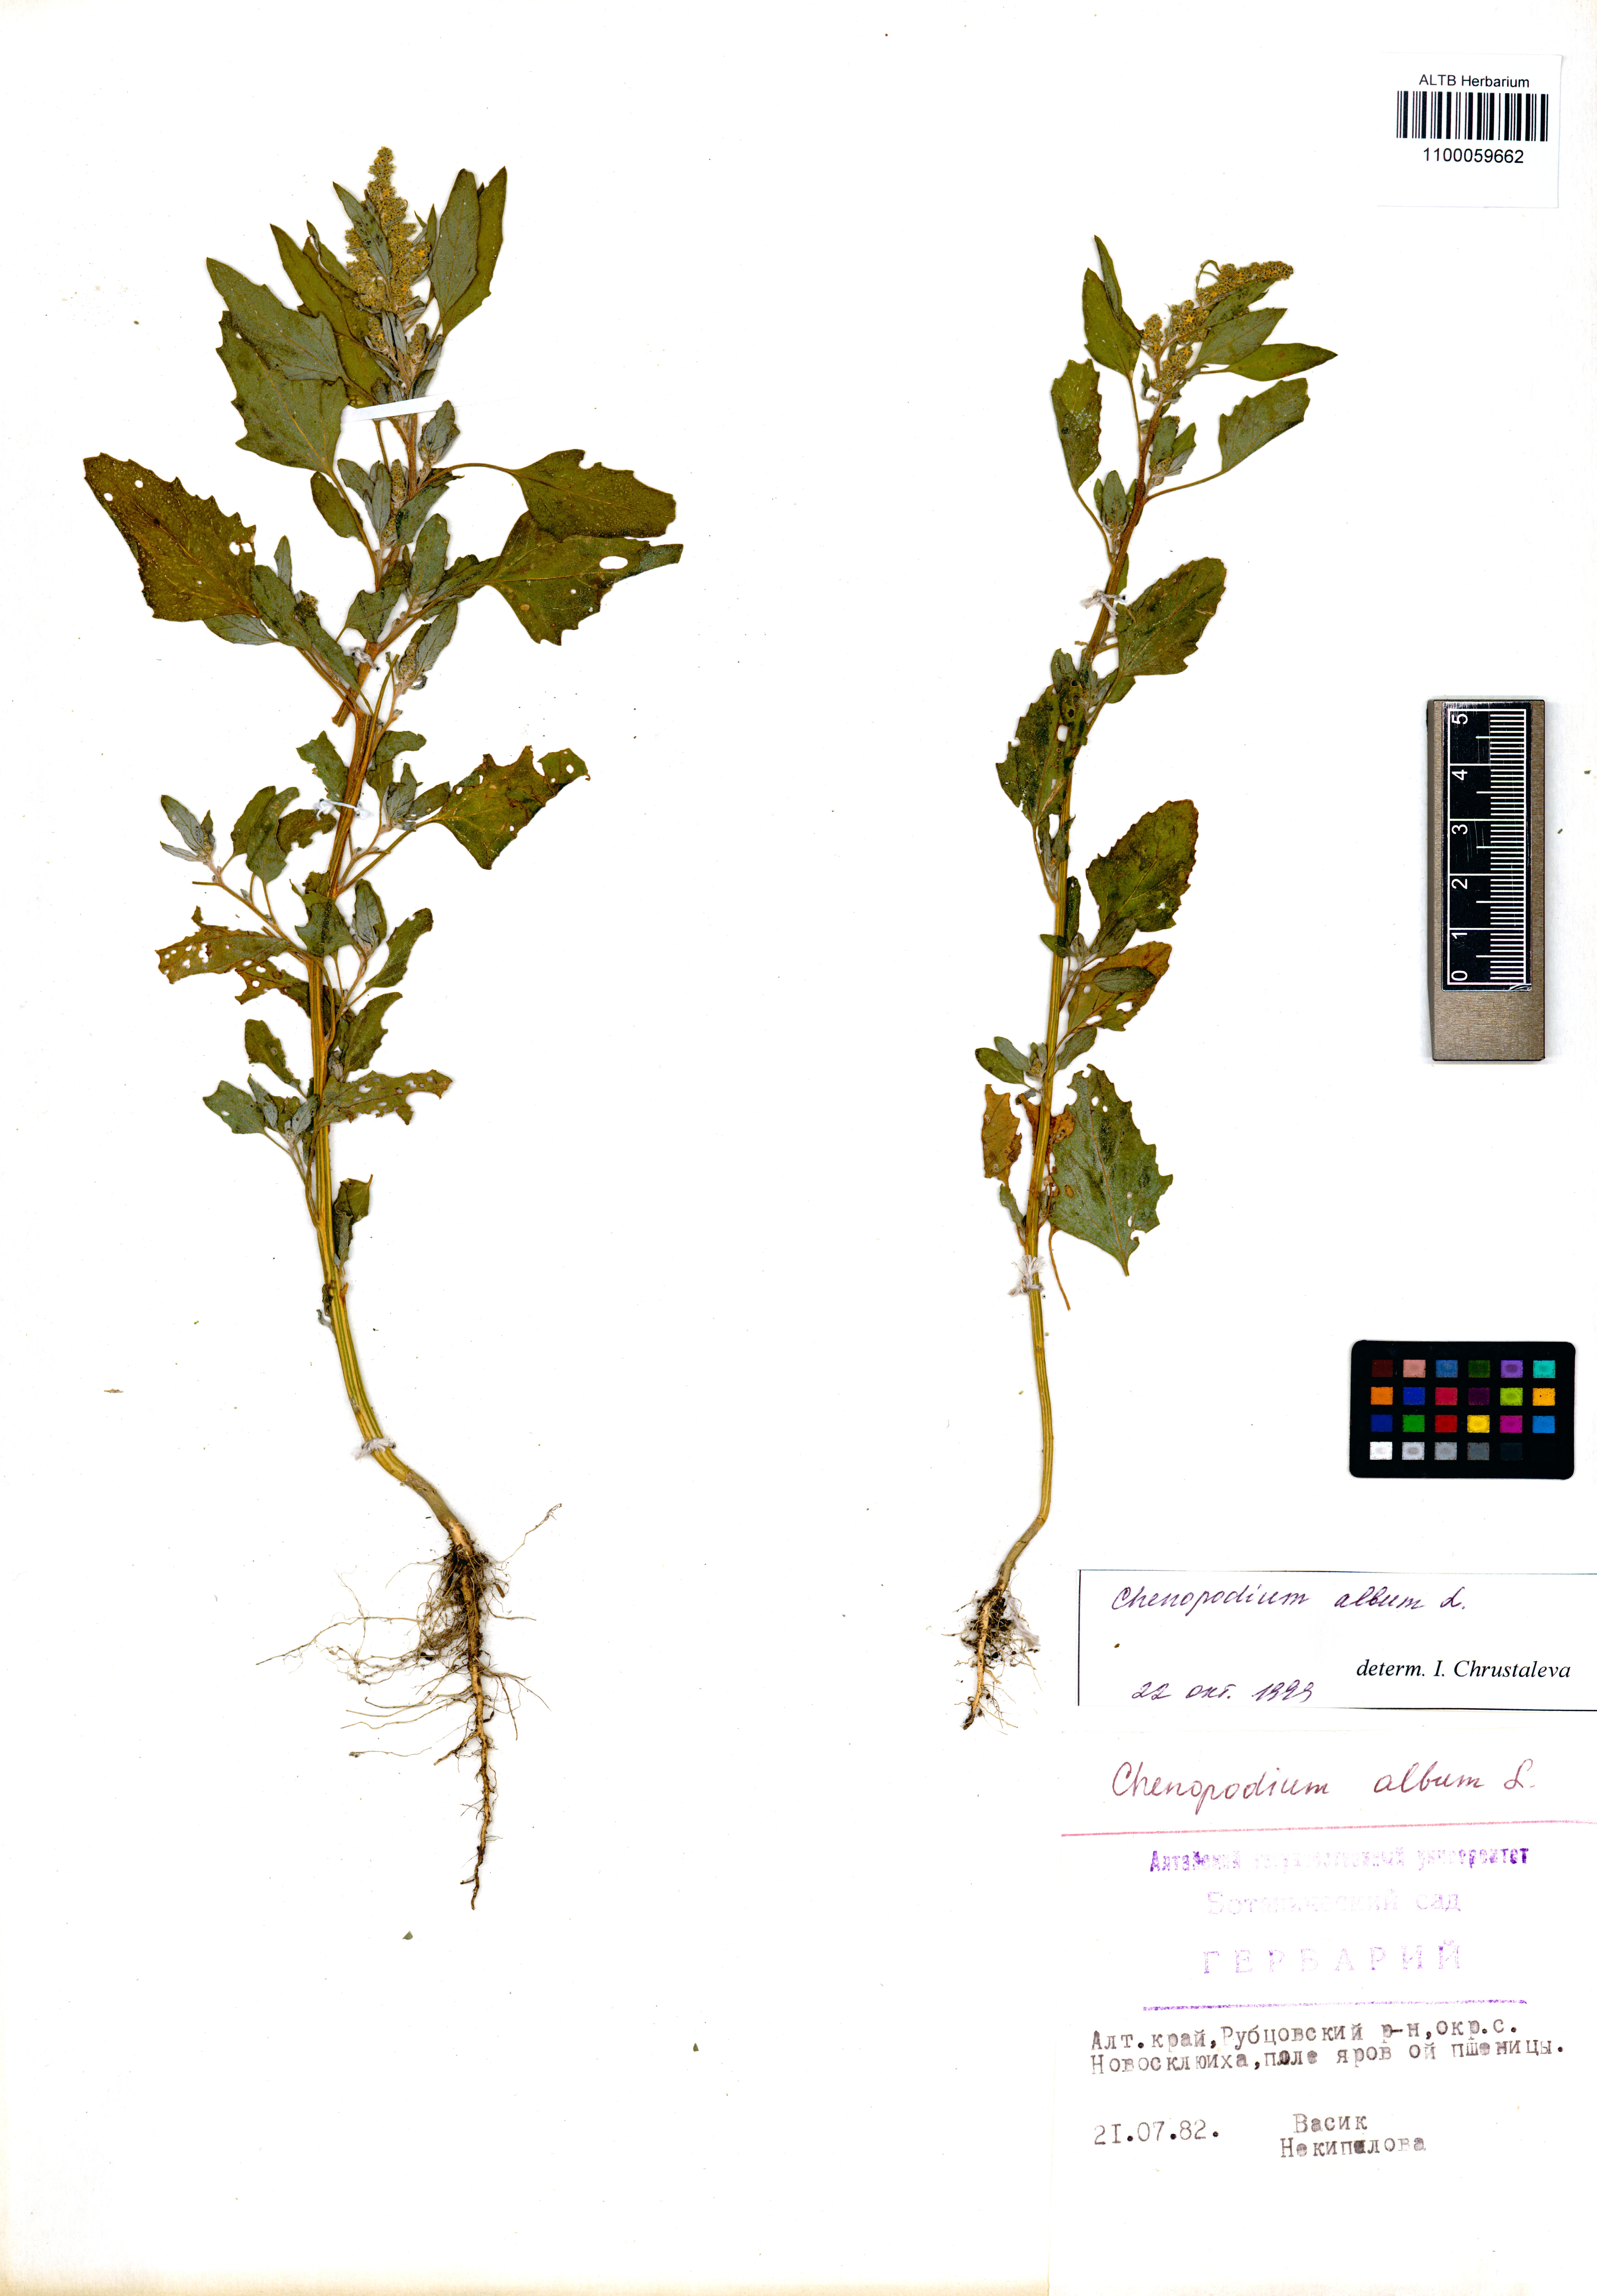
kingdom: Plantae
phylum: Tracheophyta
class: Magnoliopsida
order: Caryophyllales
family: Amaranthaceae
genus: Chenopodium
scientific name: Chenopodium album
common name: Fat-hen
